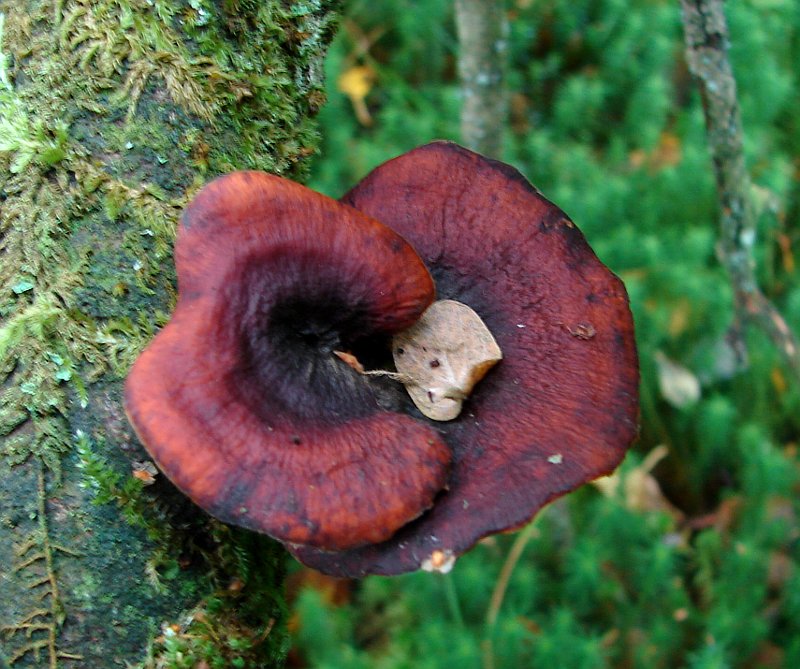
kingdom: Fungi
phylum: Basidiomycota
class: Agaricomycetes
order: Polyporales
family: Polyporaceae
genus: Picipes
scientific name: Picipes tubaeformis
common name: trompet-stilkporesvamp
